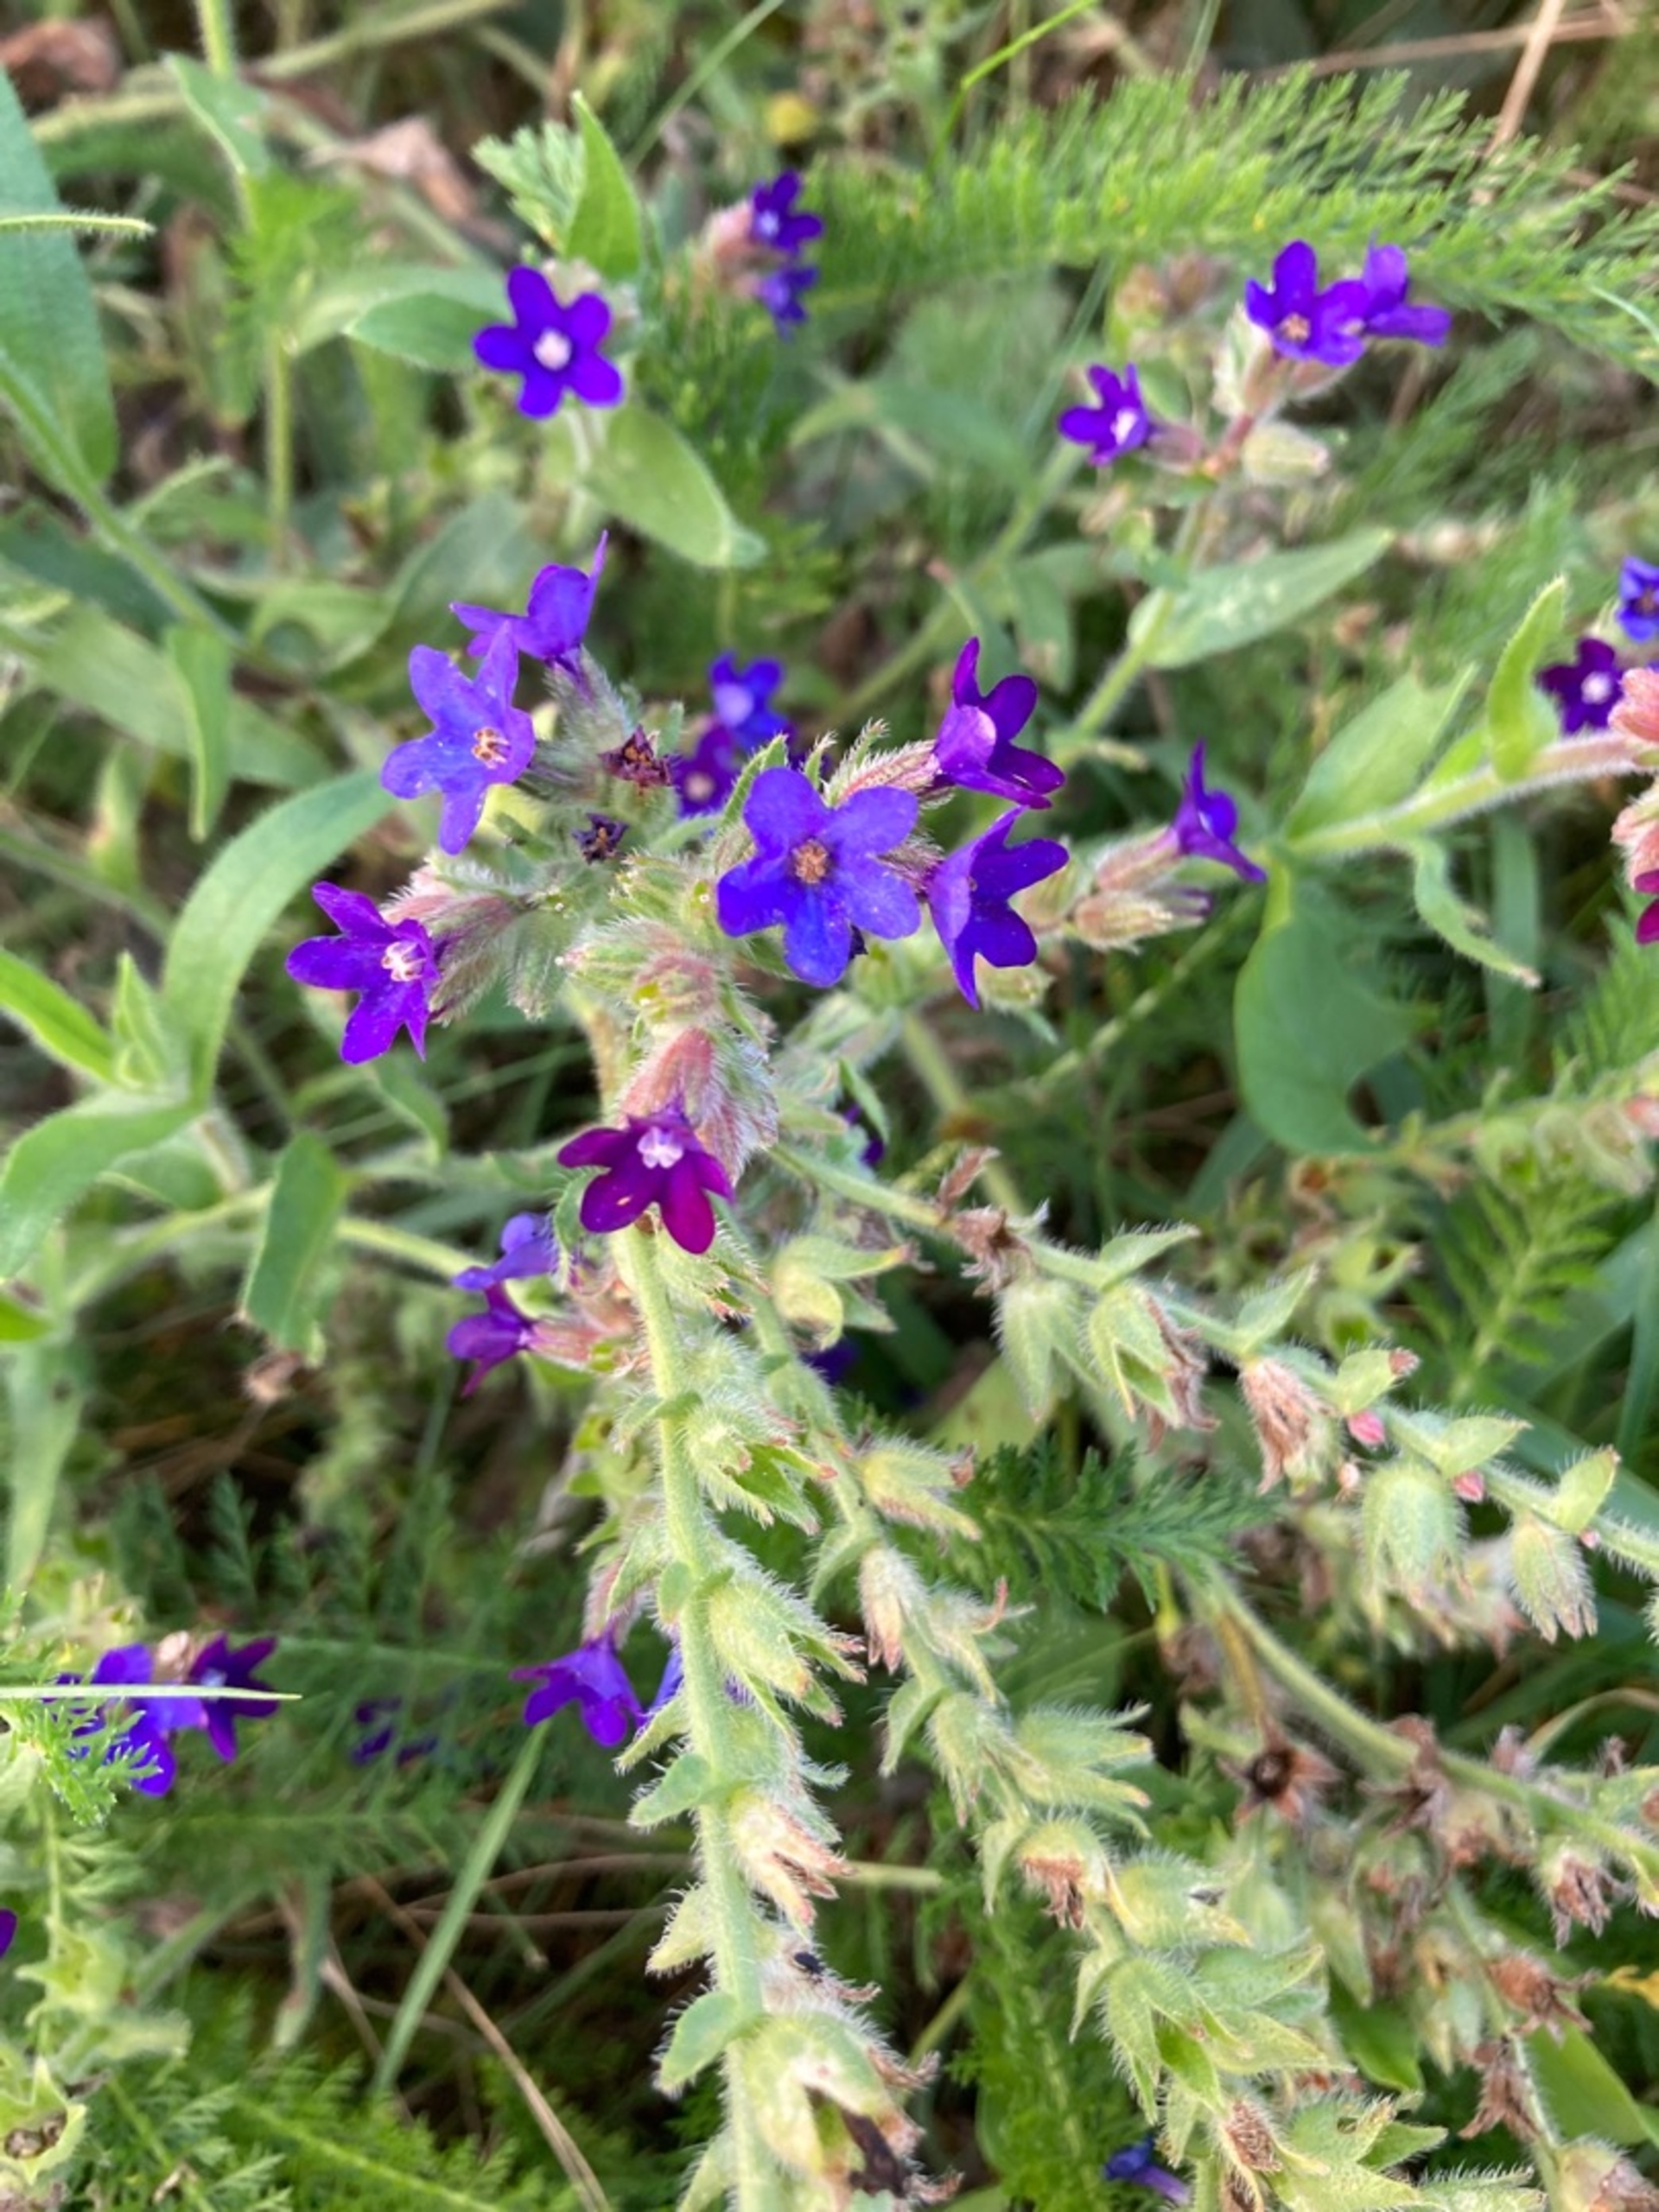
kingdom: Plantae
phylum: Tracheophyta
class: Magnoliopsida
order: Boraginales
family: Boraginaceae
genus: Anchusa
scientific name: Anchusa officinalis
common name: Læge-oksetunge
